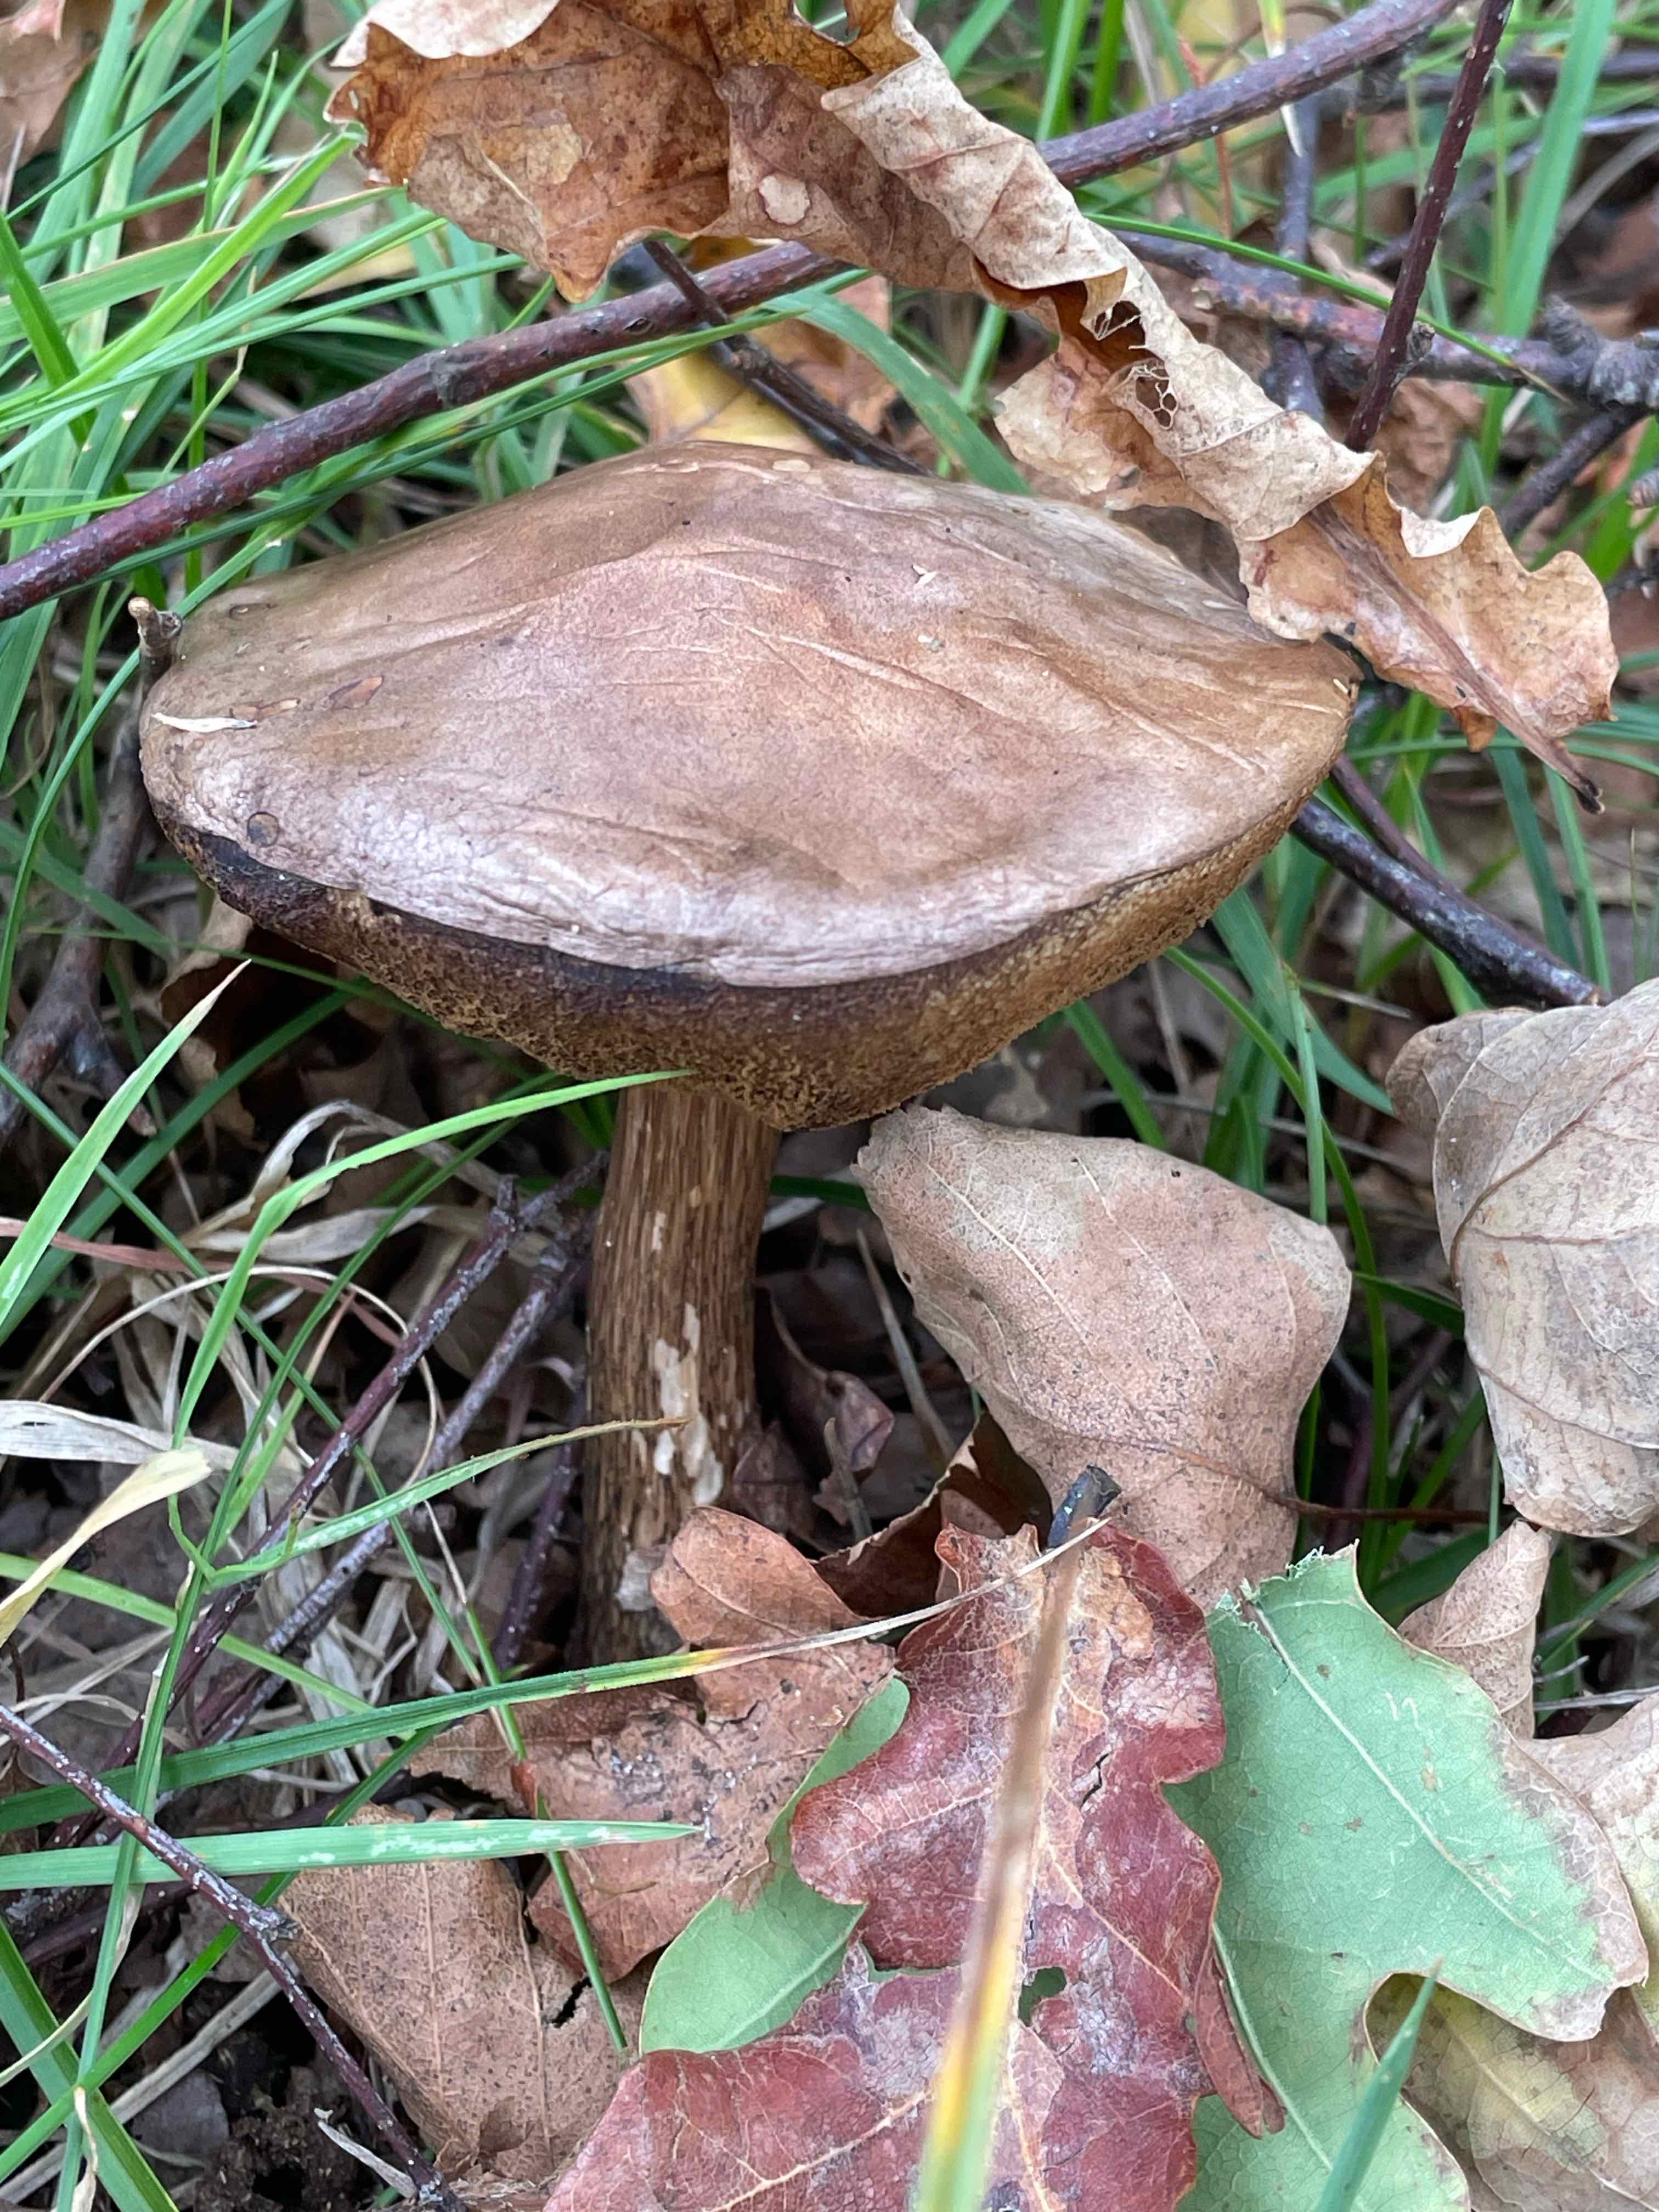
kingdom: Fungi
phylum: Basidiomycota
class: Agaricomycetes
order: Boletales
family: Boletaceae
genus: Leccinum
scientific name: Leccinum scabrum
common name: brun skælrørhat
